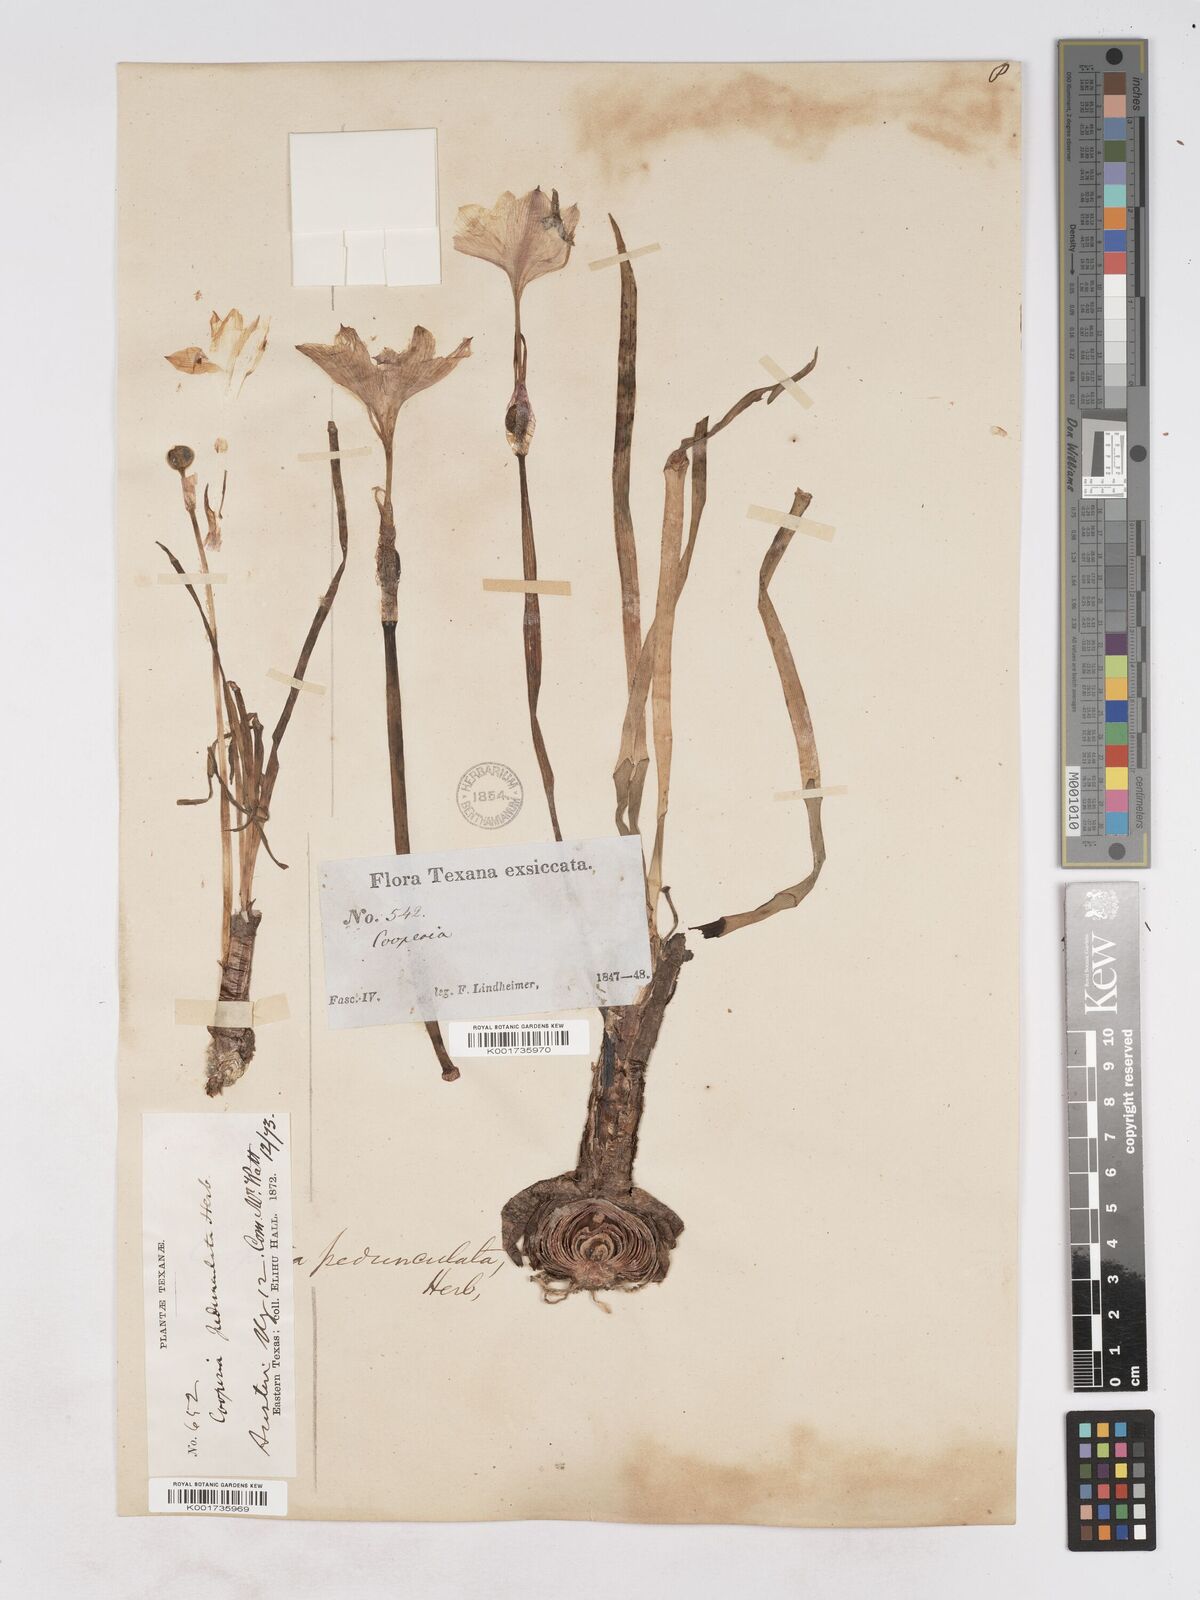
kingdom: Plantae
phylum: Tracheophyta
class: Liliopsida
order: Asparagales
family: Amaryllidaceae
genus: Zephyranthes
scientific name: Zephyranthes drummondii
